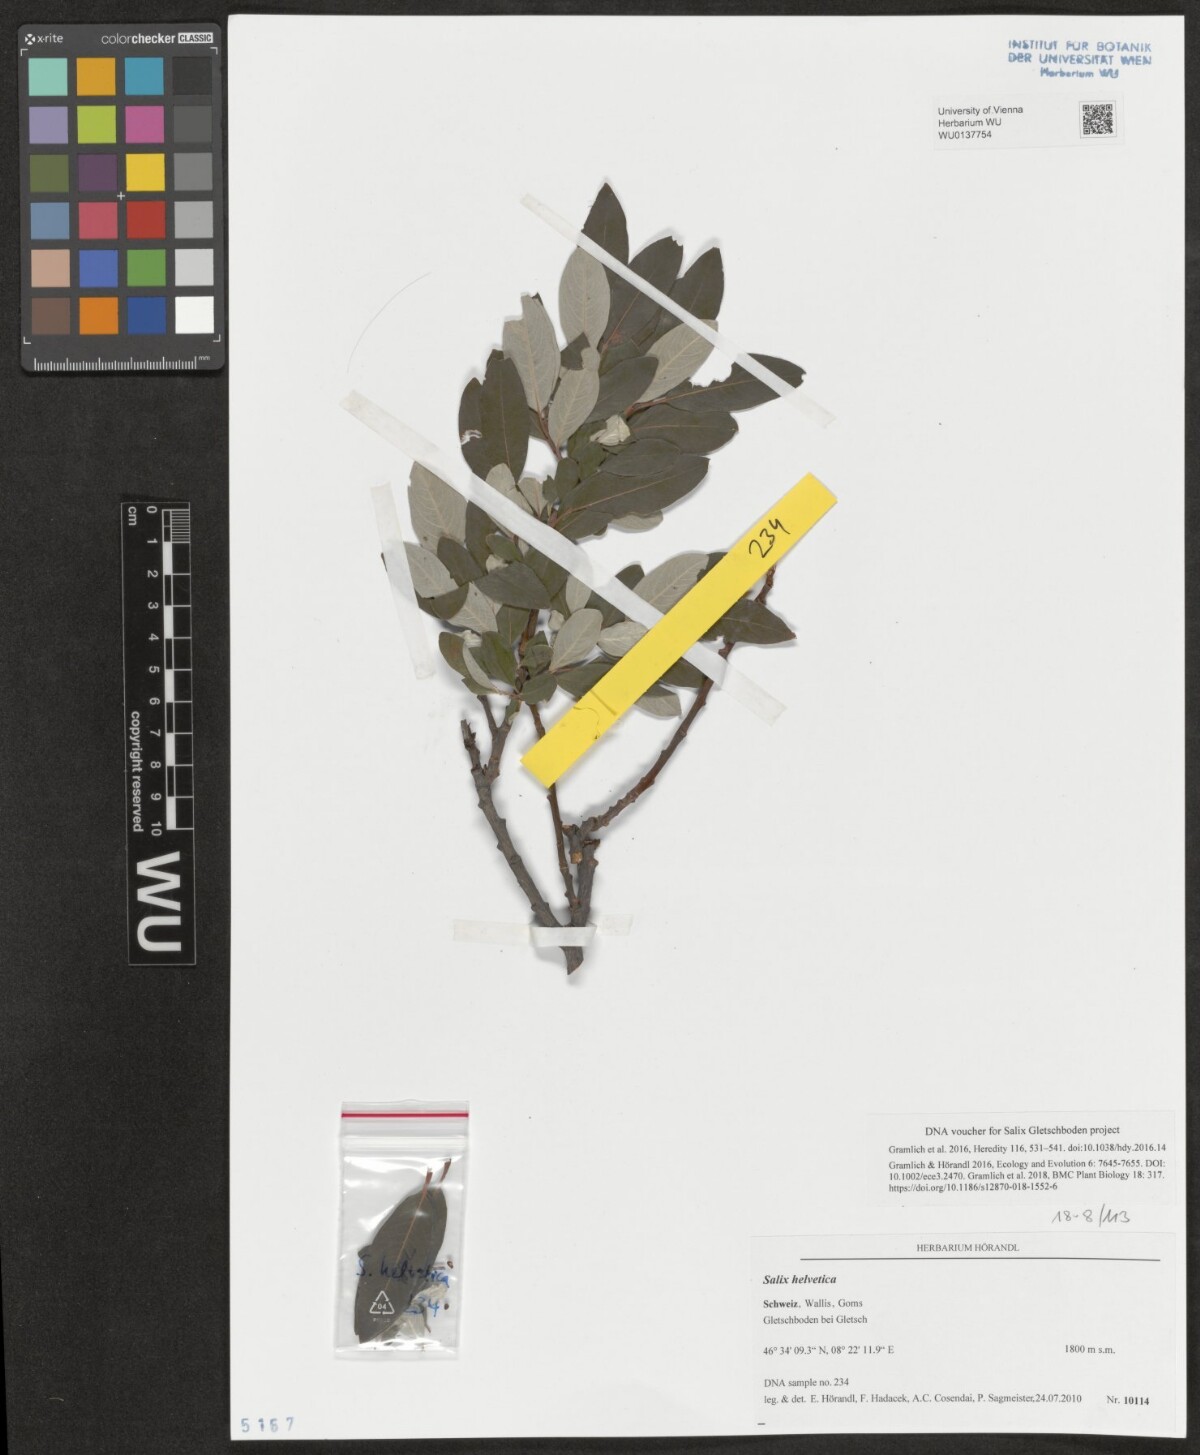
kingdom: Plantae
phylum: Tracheophyta
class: Magnoliopsida
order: Malpighiales
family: Salicaceae
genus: Salix
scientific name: Salix helvetica
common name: Swiss willow
